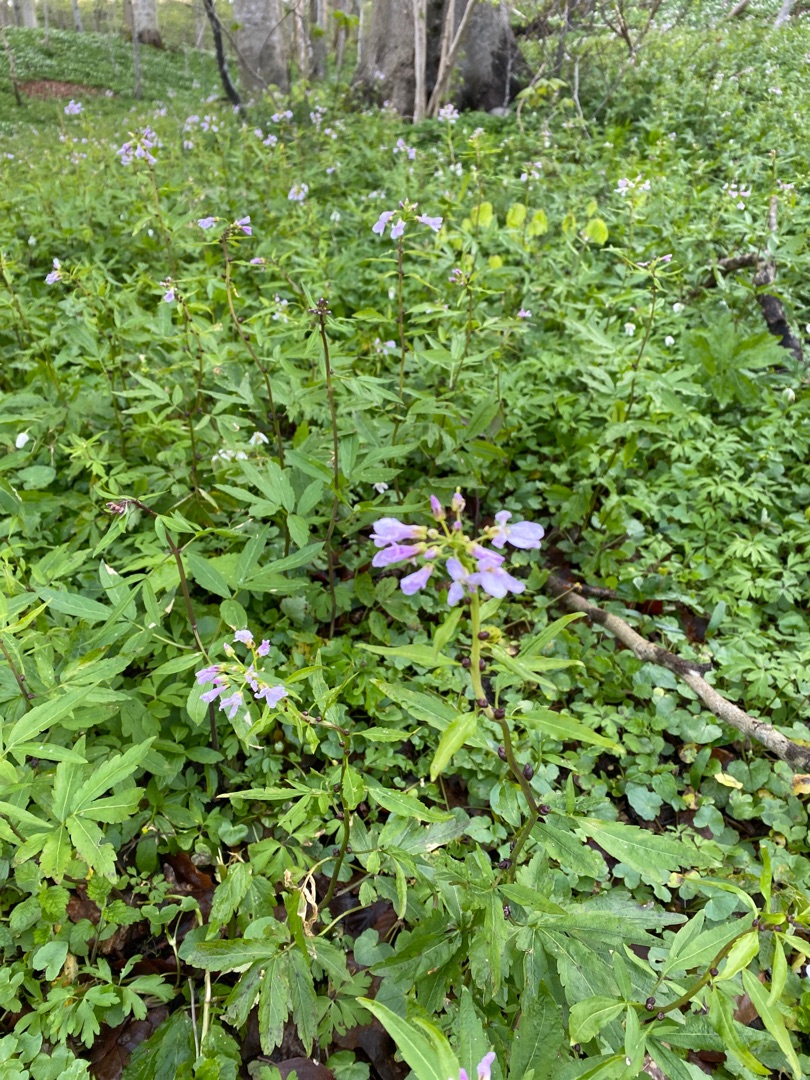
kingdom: Plantae
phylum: Tracheophyta
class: Magnoliopsida
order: Brassicales
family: Brassicaceae
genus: Cardamine
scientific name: Cardamine bulbifera
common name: Tandrod
